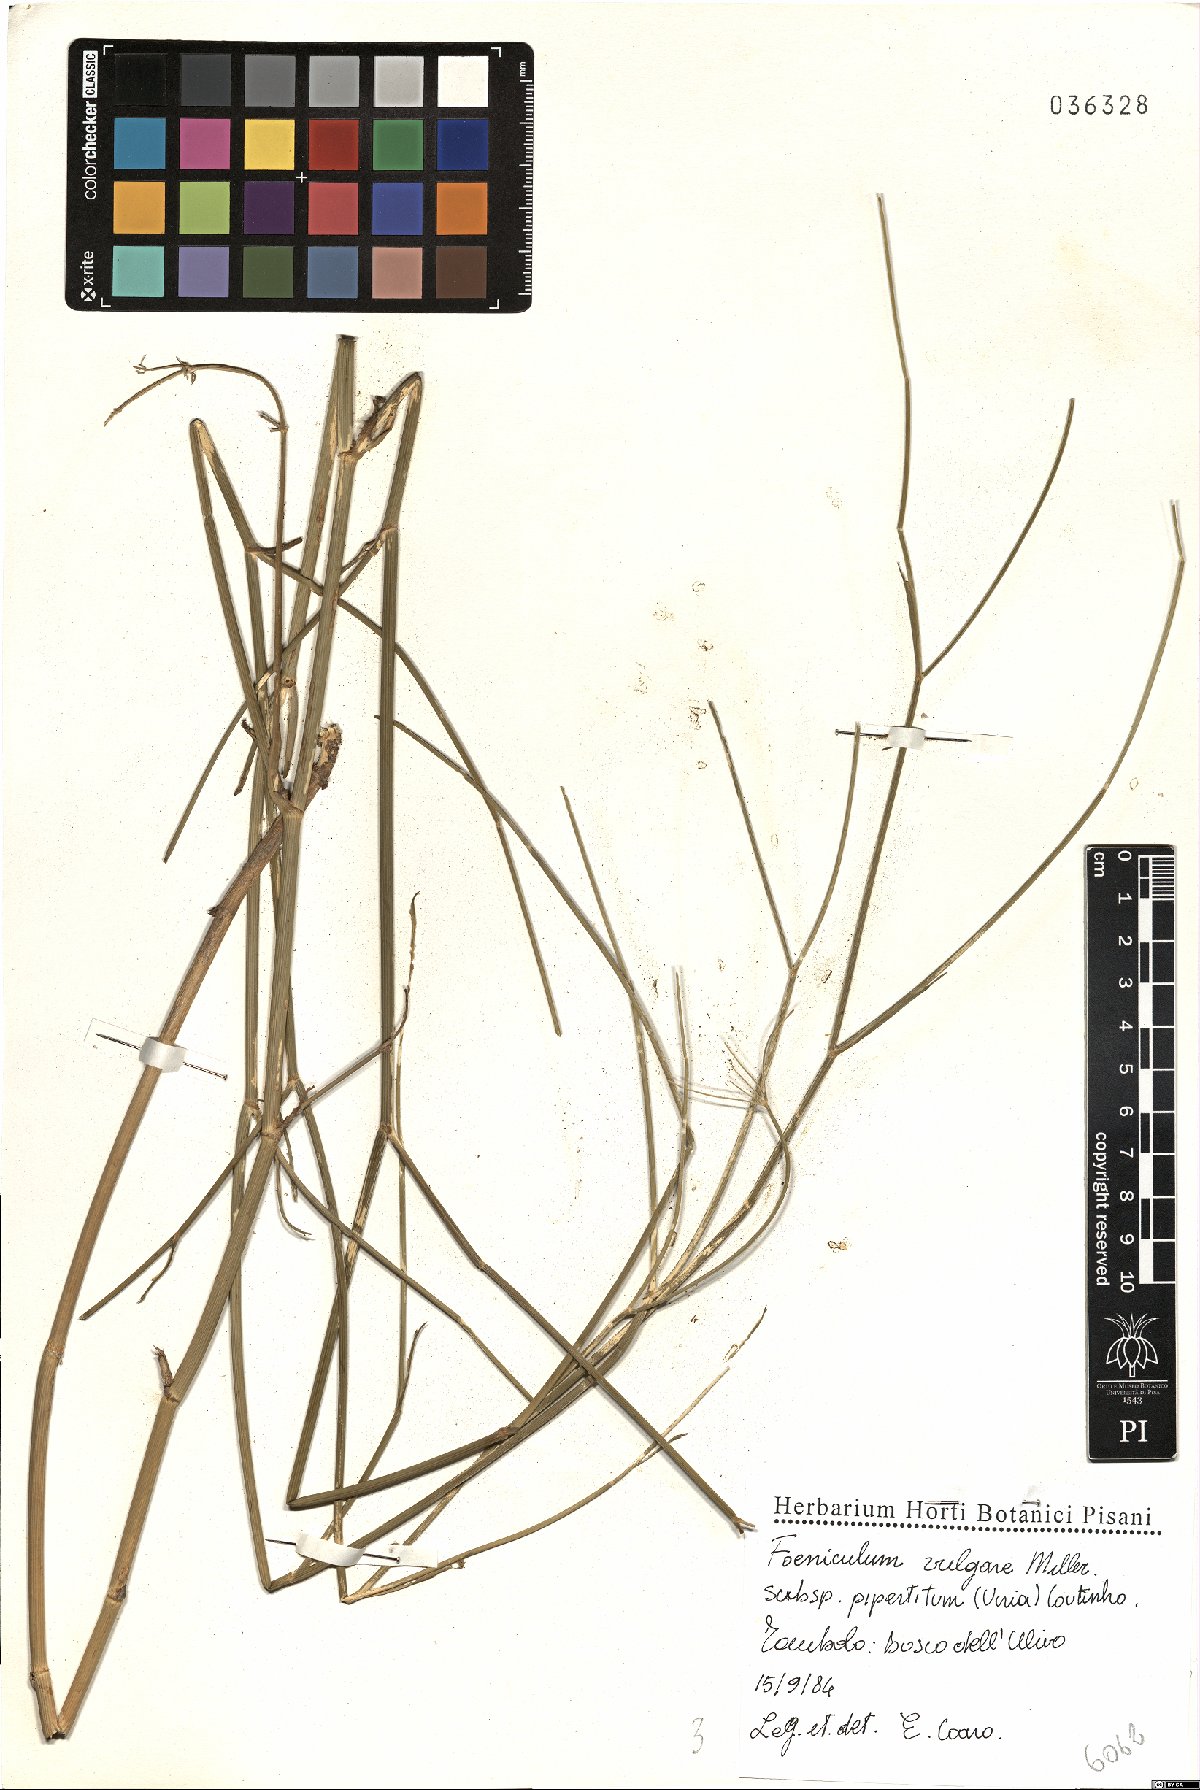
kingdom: Plantae
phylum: Tracheophyta
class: Magnoliopsida
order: Apiales
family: Apiaceae
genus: Foeniculum
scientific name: Foeniculum vulgare
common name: Fennel
